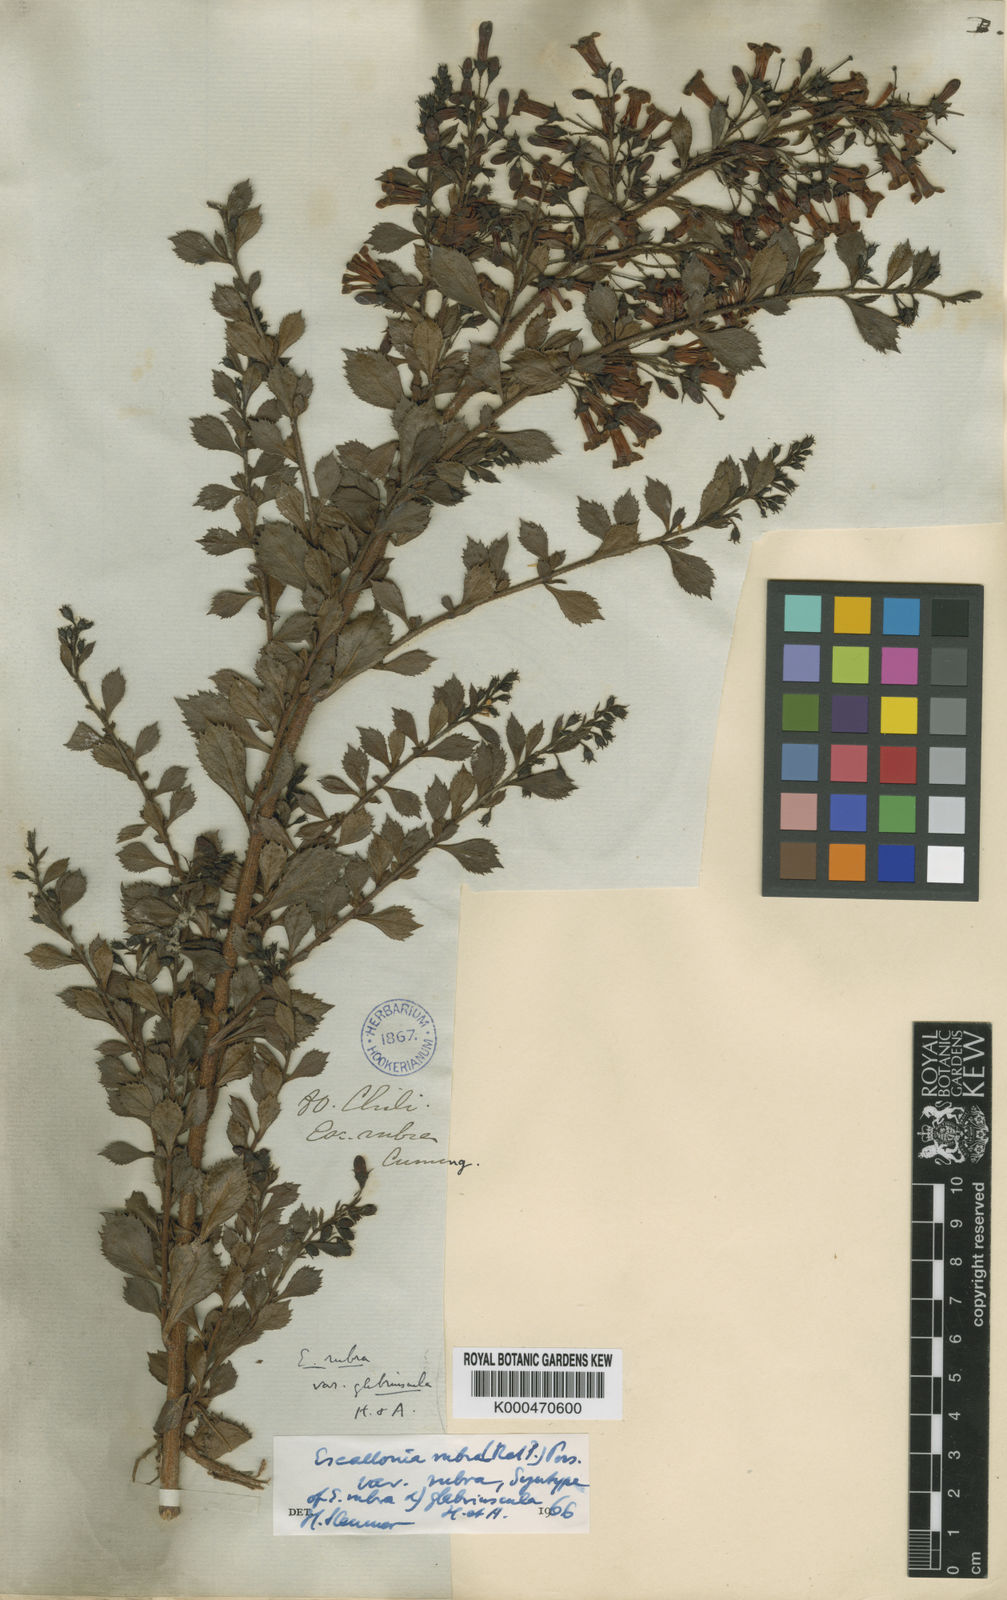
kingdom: Plantae
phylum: Tracheophyta
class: Magnoliopsida
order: Escalloniales
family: Escalloniaceae
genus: Escallonia
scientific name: Escallonia rubra
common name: Redclaws
